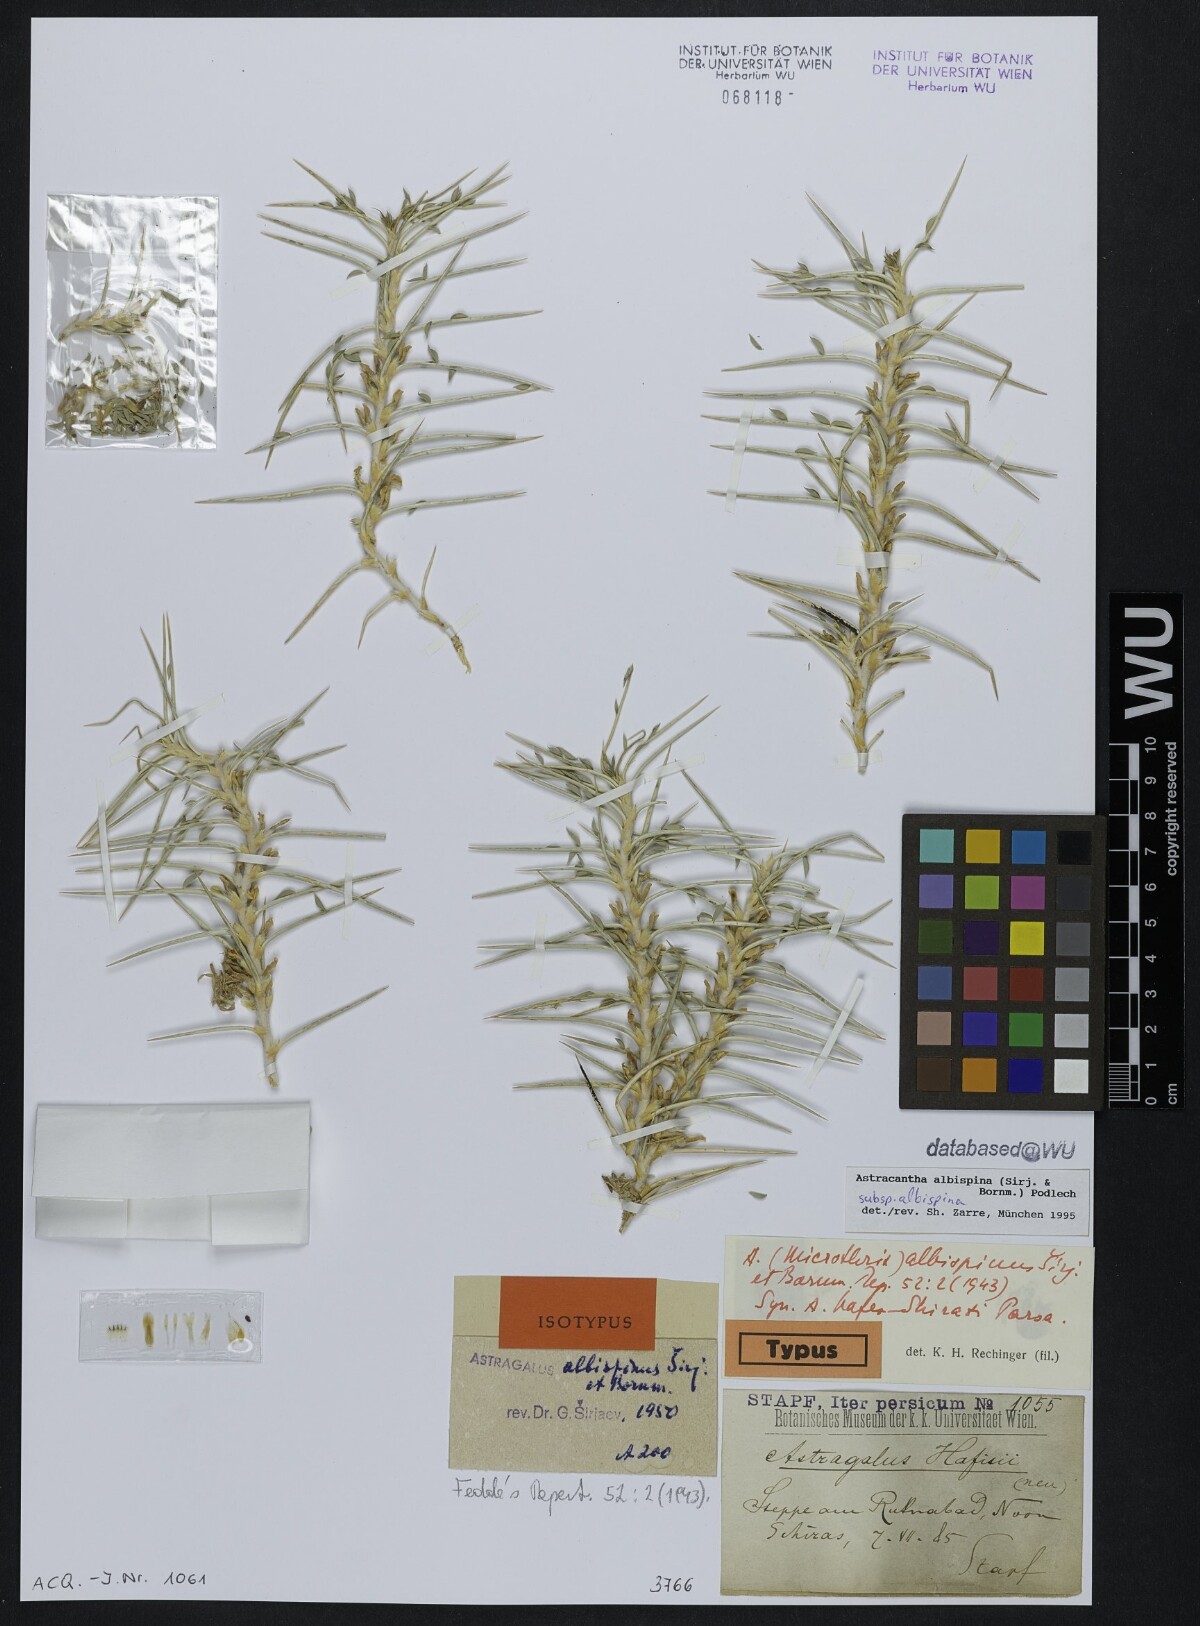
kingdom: Plantae
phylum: Tracheophyta
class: Magnoliopsida
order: Fabales
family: Fabaceae
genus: Astragalus
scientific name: Astragalus albispinus
